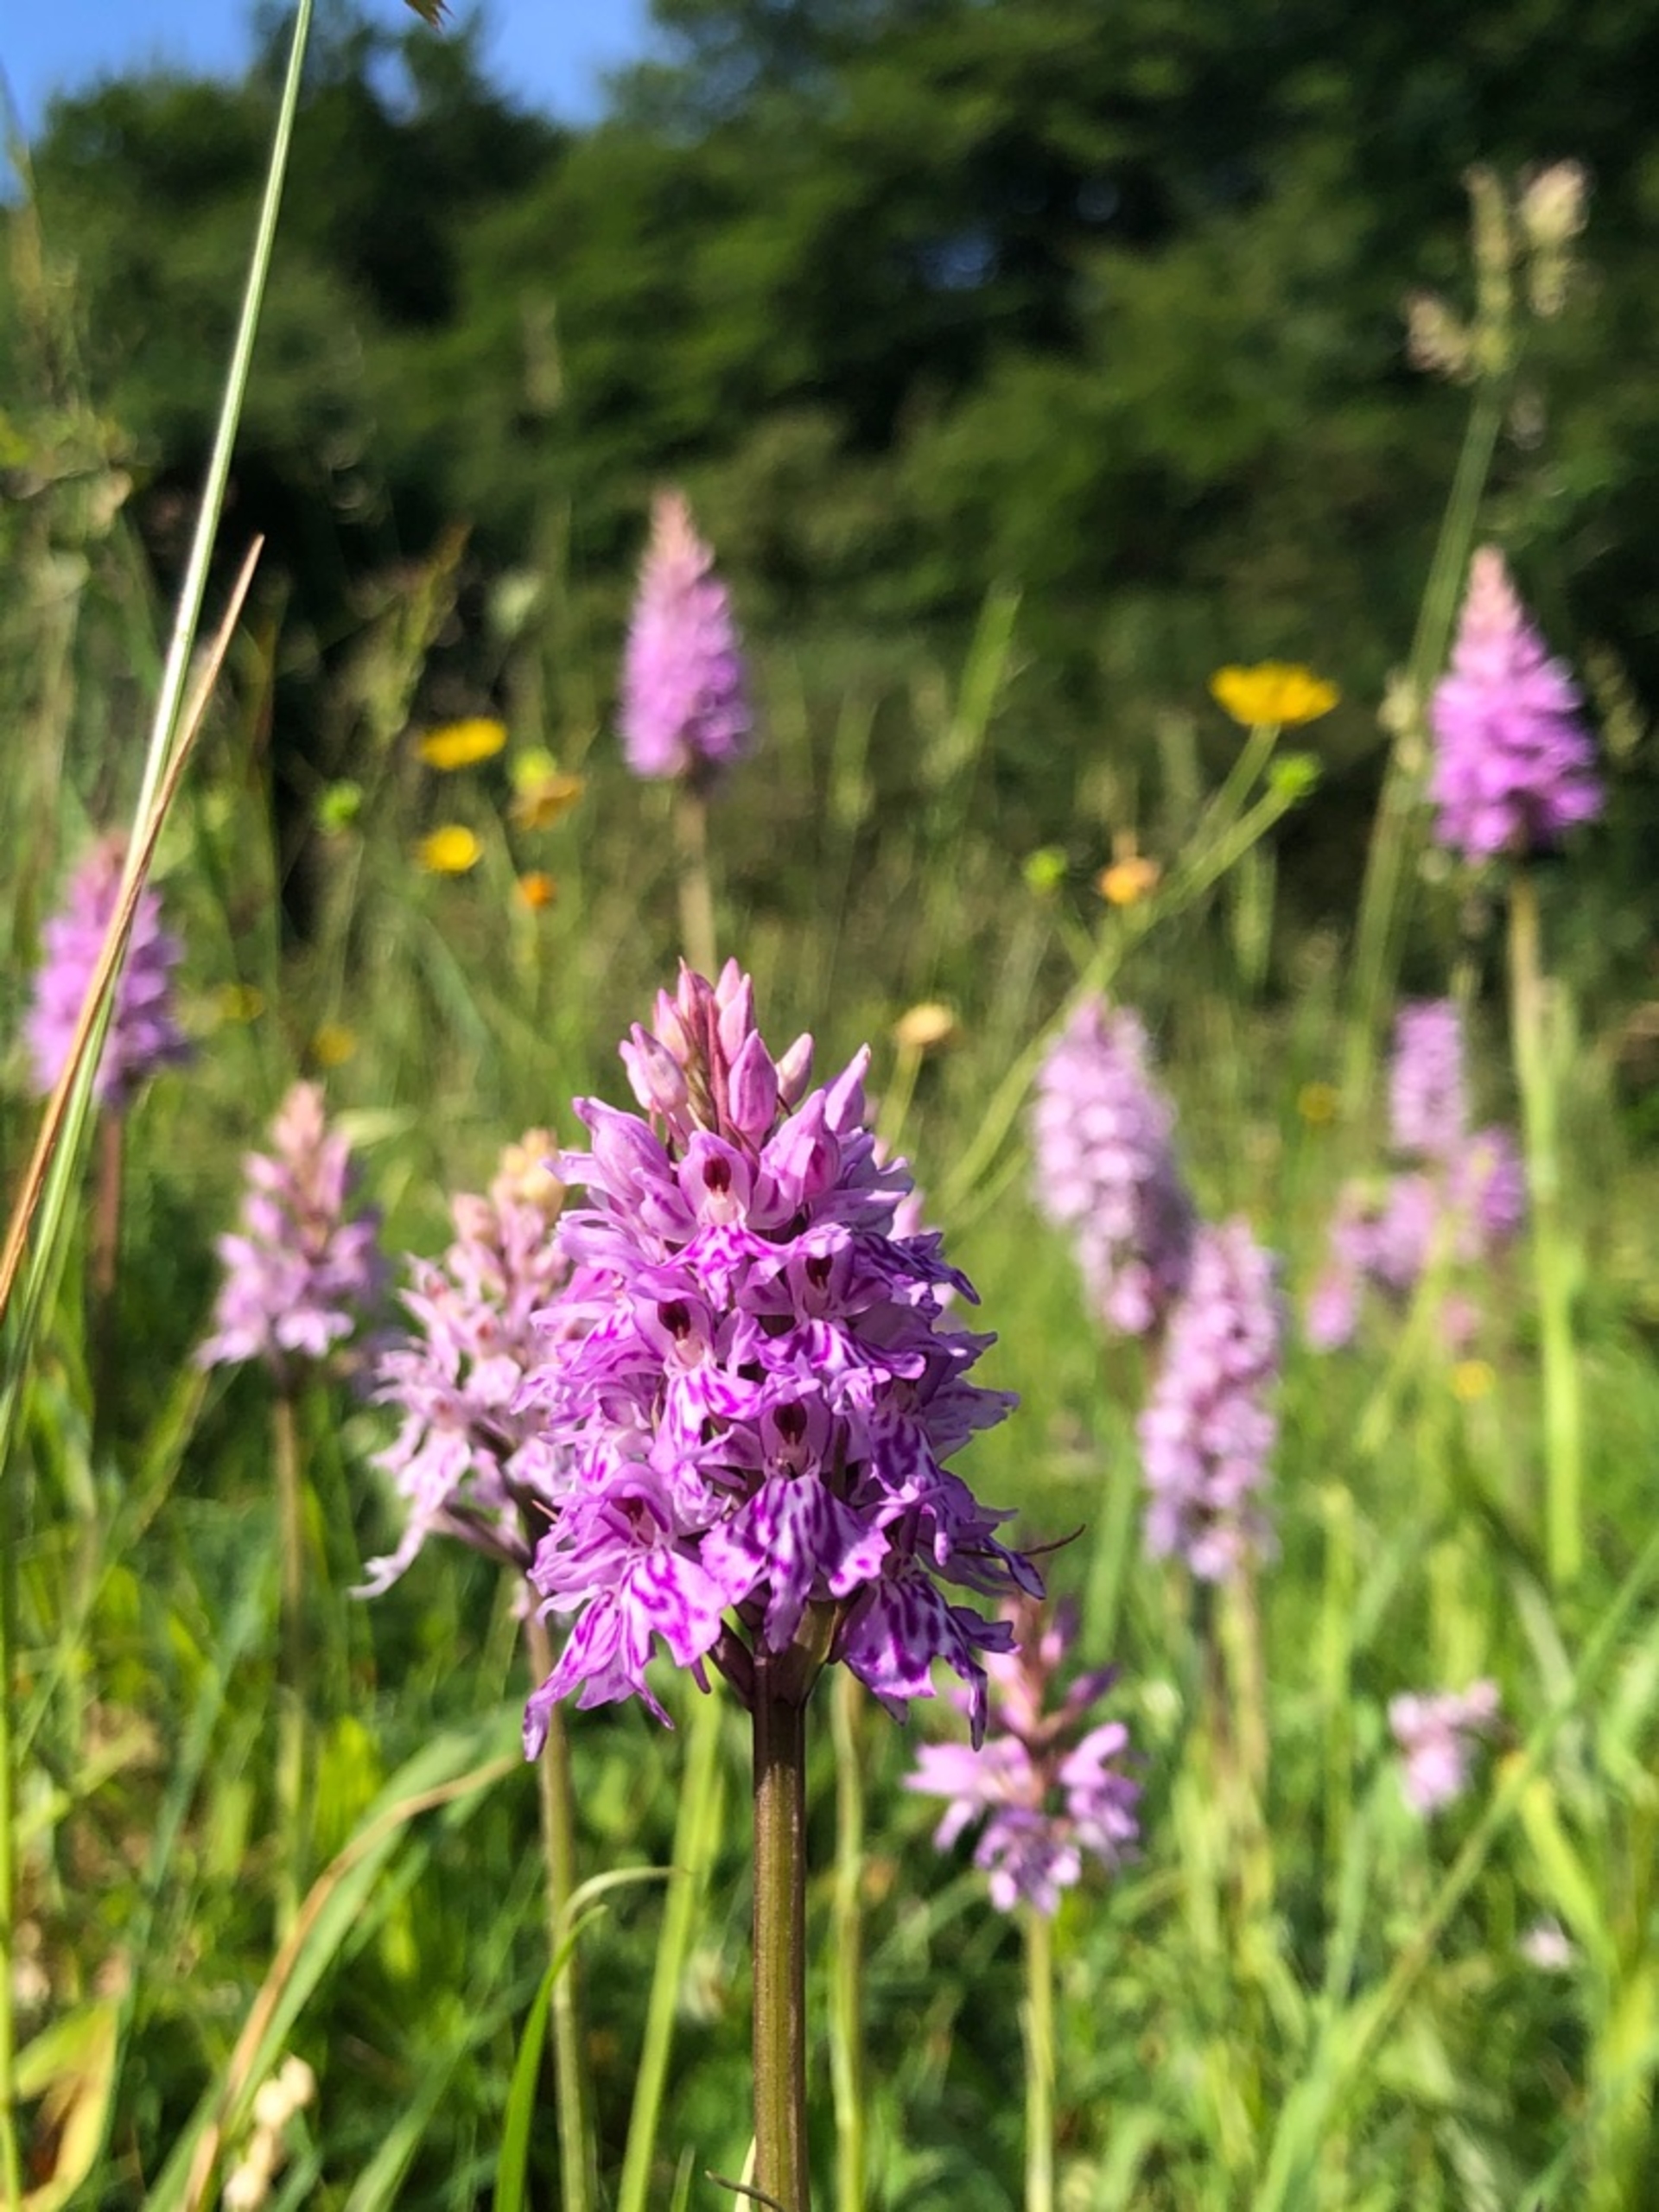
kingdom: Plantae
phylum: Tracheophyta
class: Liliopsida
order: Asparagales
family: Orchidaceae
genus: Dactylorhiza
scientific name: Dactylorhiza maculata
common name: Skov-gøgeurt
